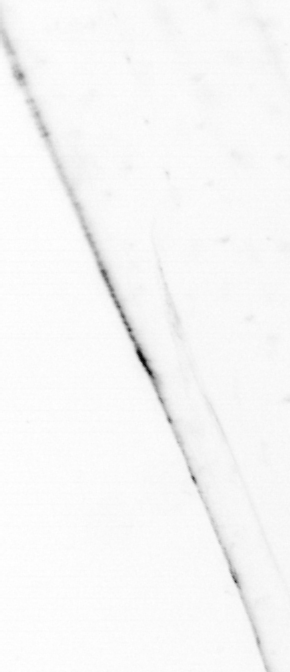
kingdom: Animalia
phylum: Chaetognatha
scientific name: Chaetognatha
